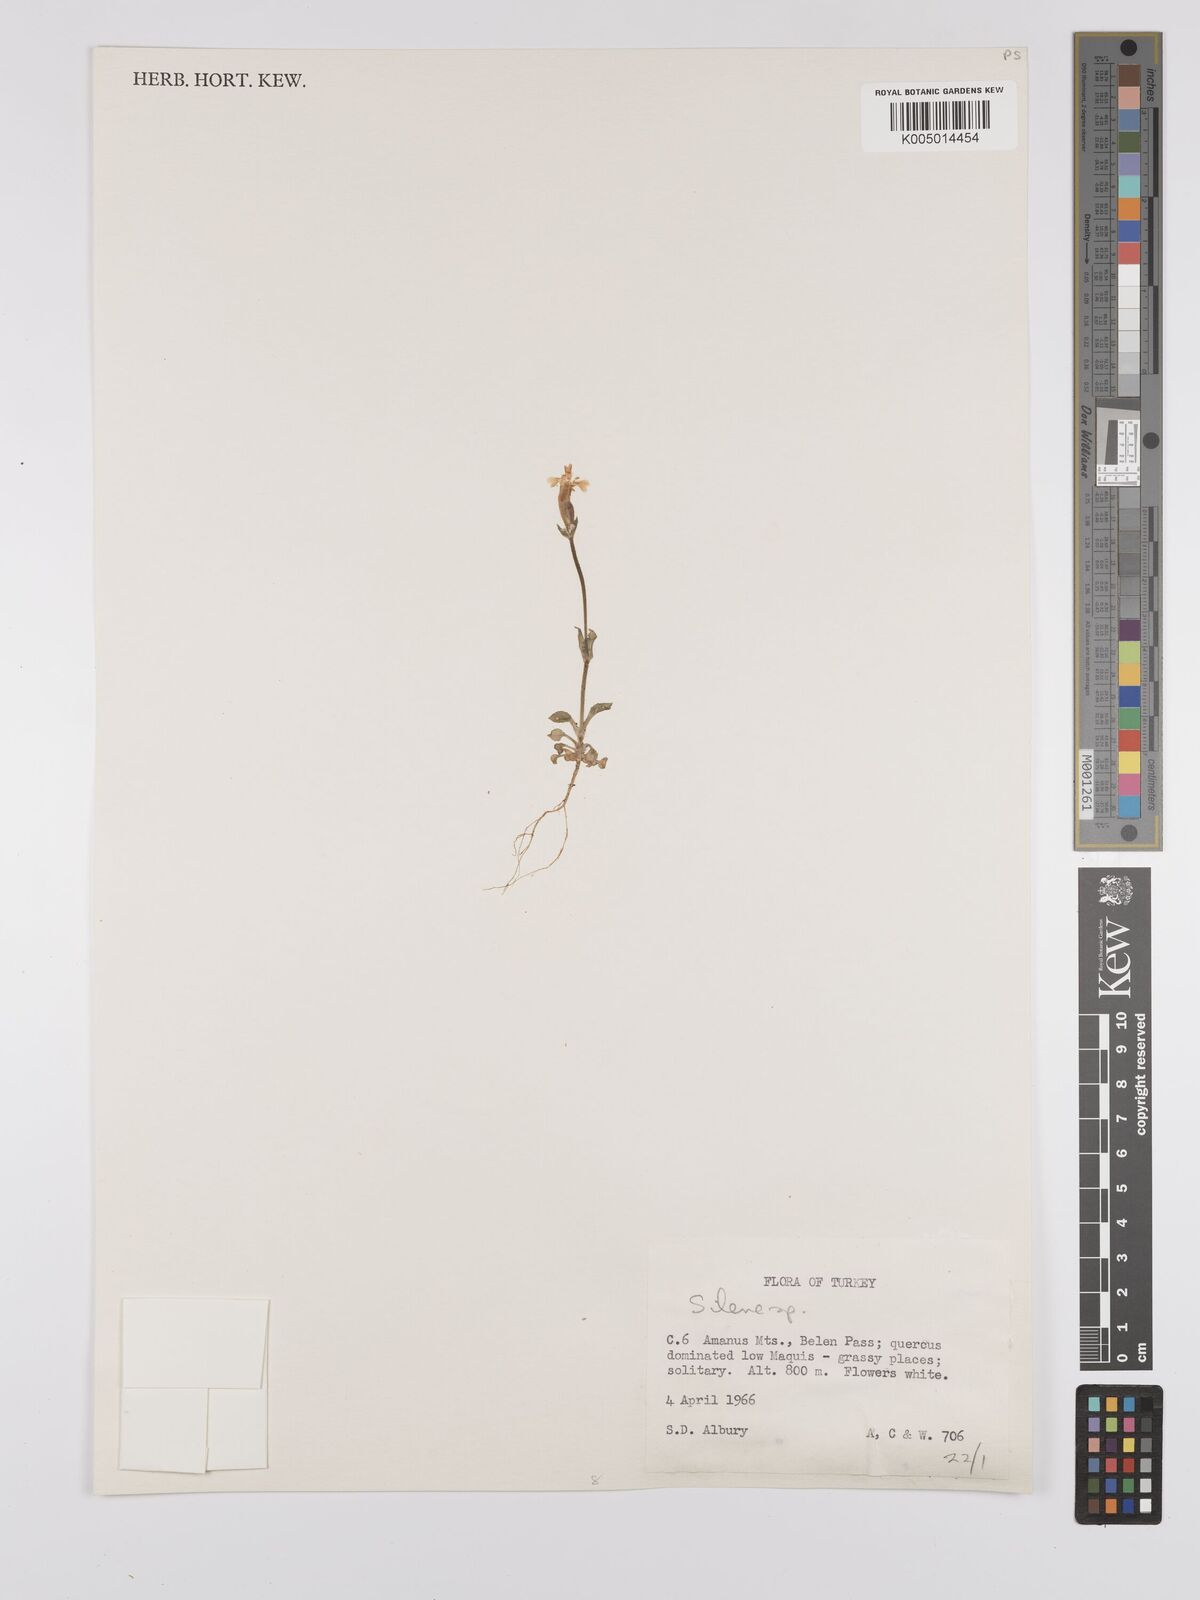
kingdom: Plantae
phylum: Tracheophyta
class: Magnoliopsida
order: Caryophyllales
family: Caryophyllaceae
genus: Silene
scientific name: Silene
